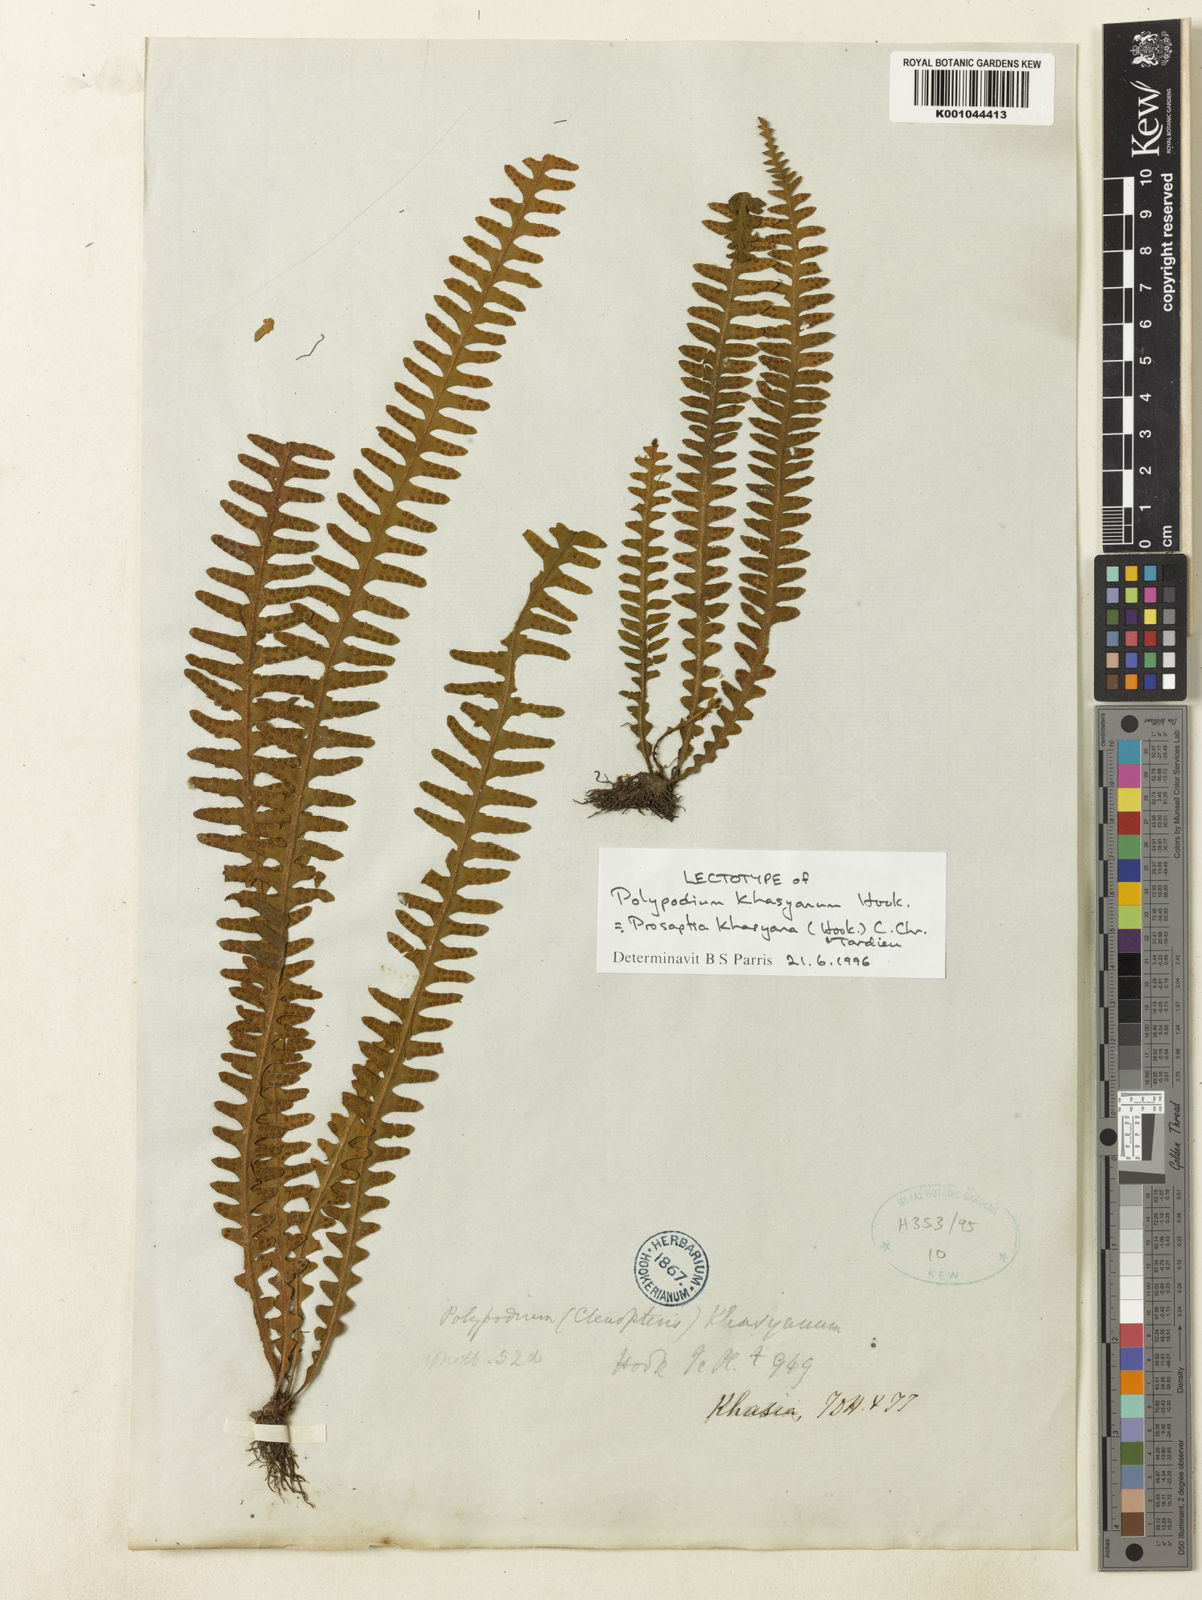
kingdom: Plantae
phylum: Tracheophyta
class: Polypodiopsida
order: Polypodiales
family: Polypodiaceae
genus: Polypodium
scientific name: Polypodium khasyanum
